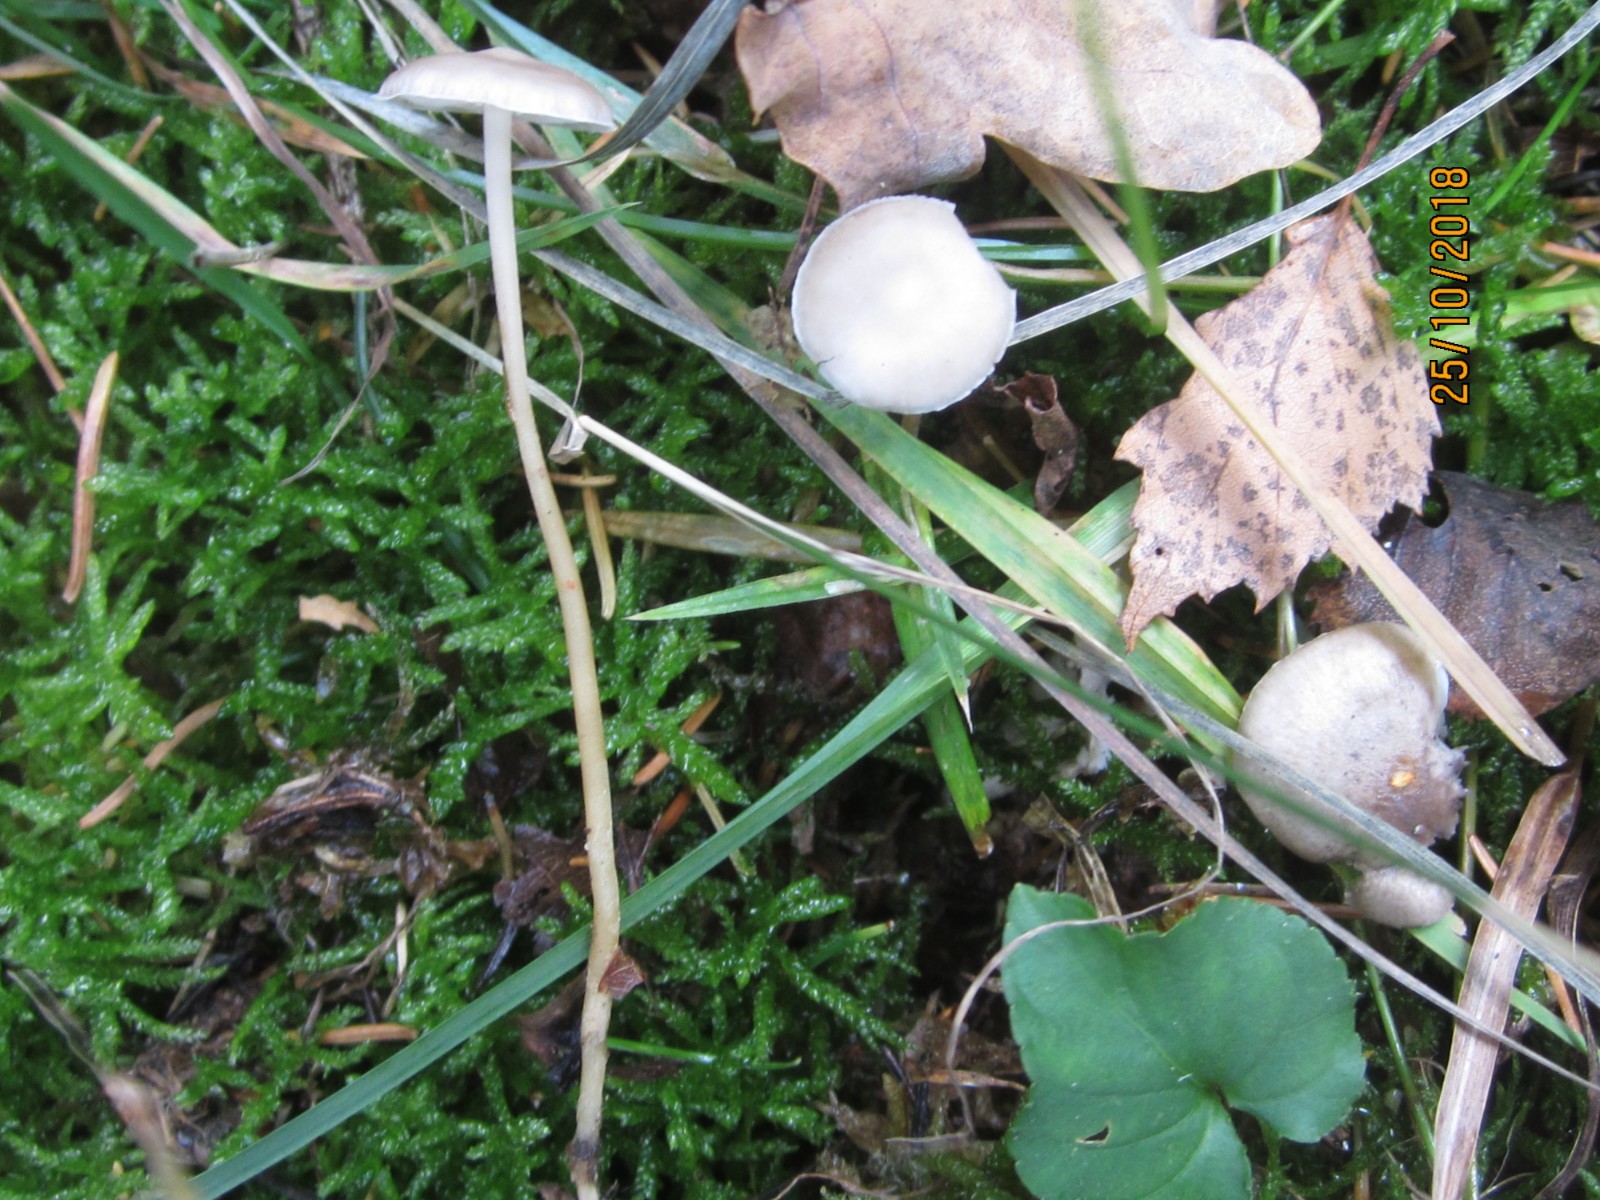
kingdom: Fungi
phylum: Basidiomycota
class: Agaricomycetes
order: Agaricales
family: Mycenaceae
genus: Mycena
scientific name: Mycena vitilis
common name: blankstokket huesvamp
